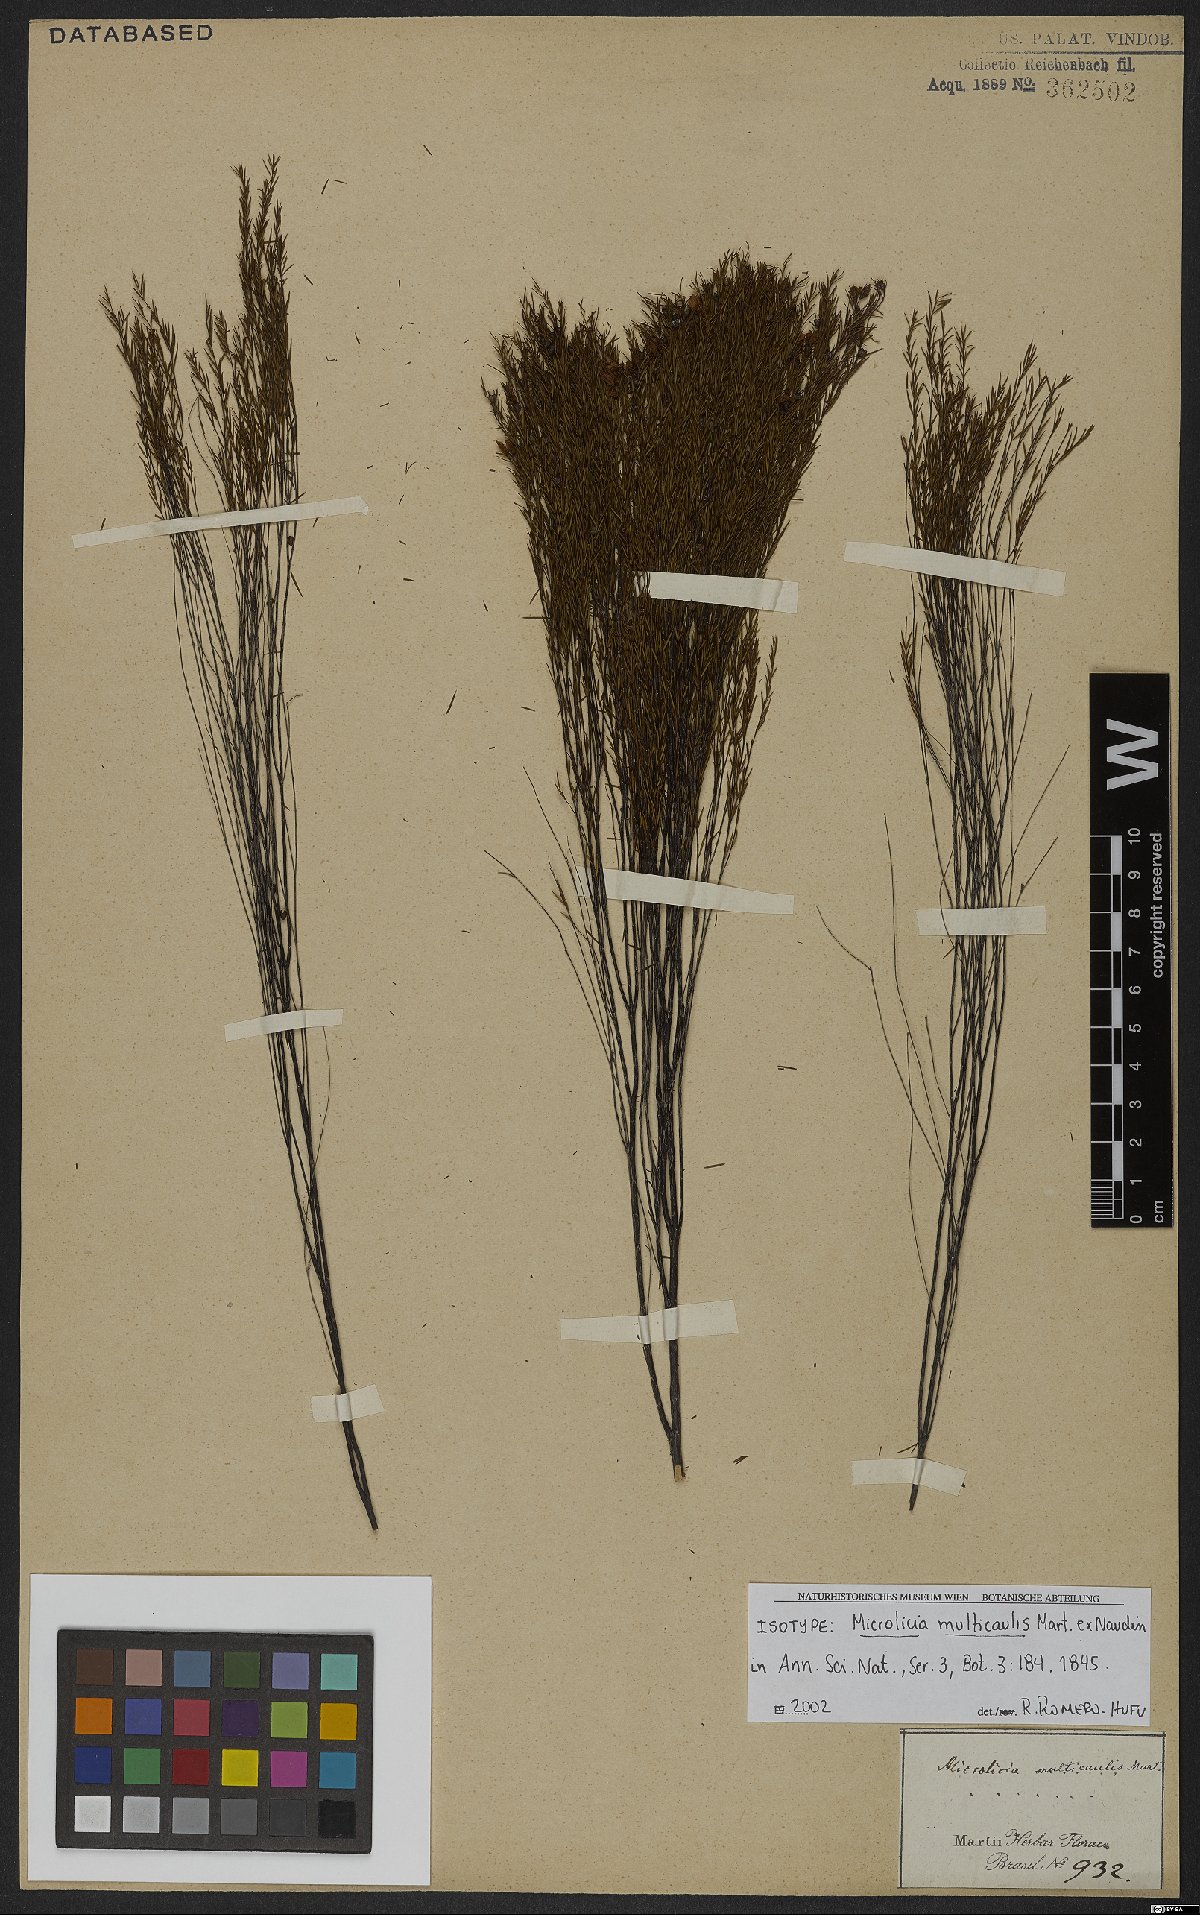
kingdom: Plantae
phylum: Tracheophyta
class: Magnoliopsida
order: Myrtales
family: Melastomataceae
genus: Microlicia
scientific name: Microlicia multicaulis
